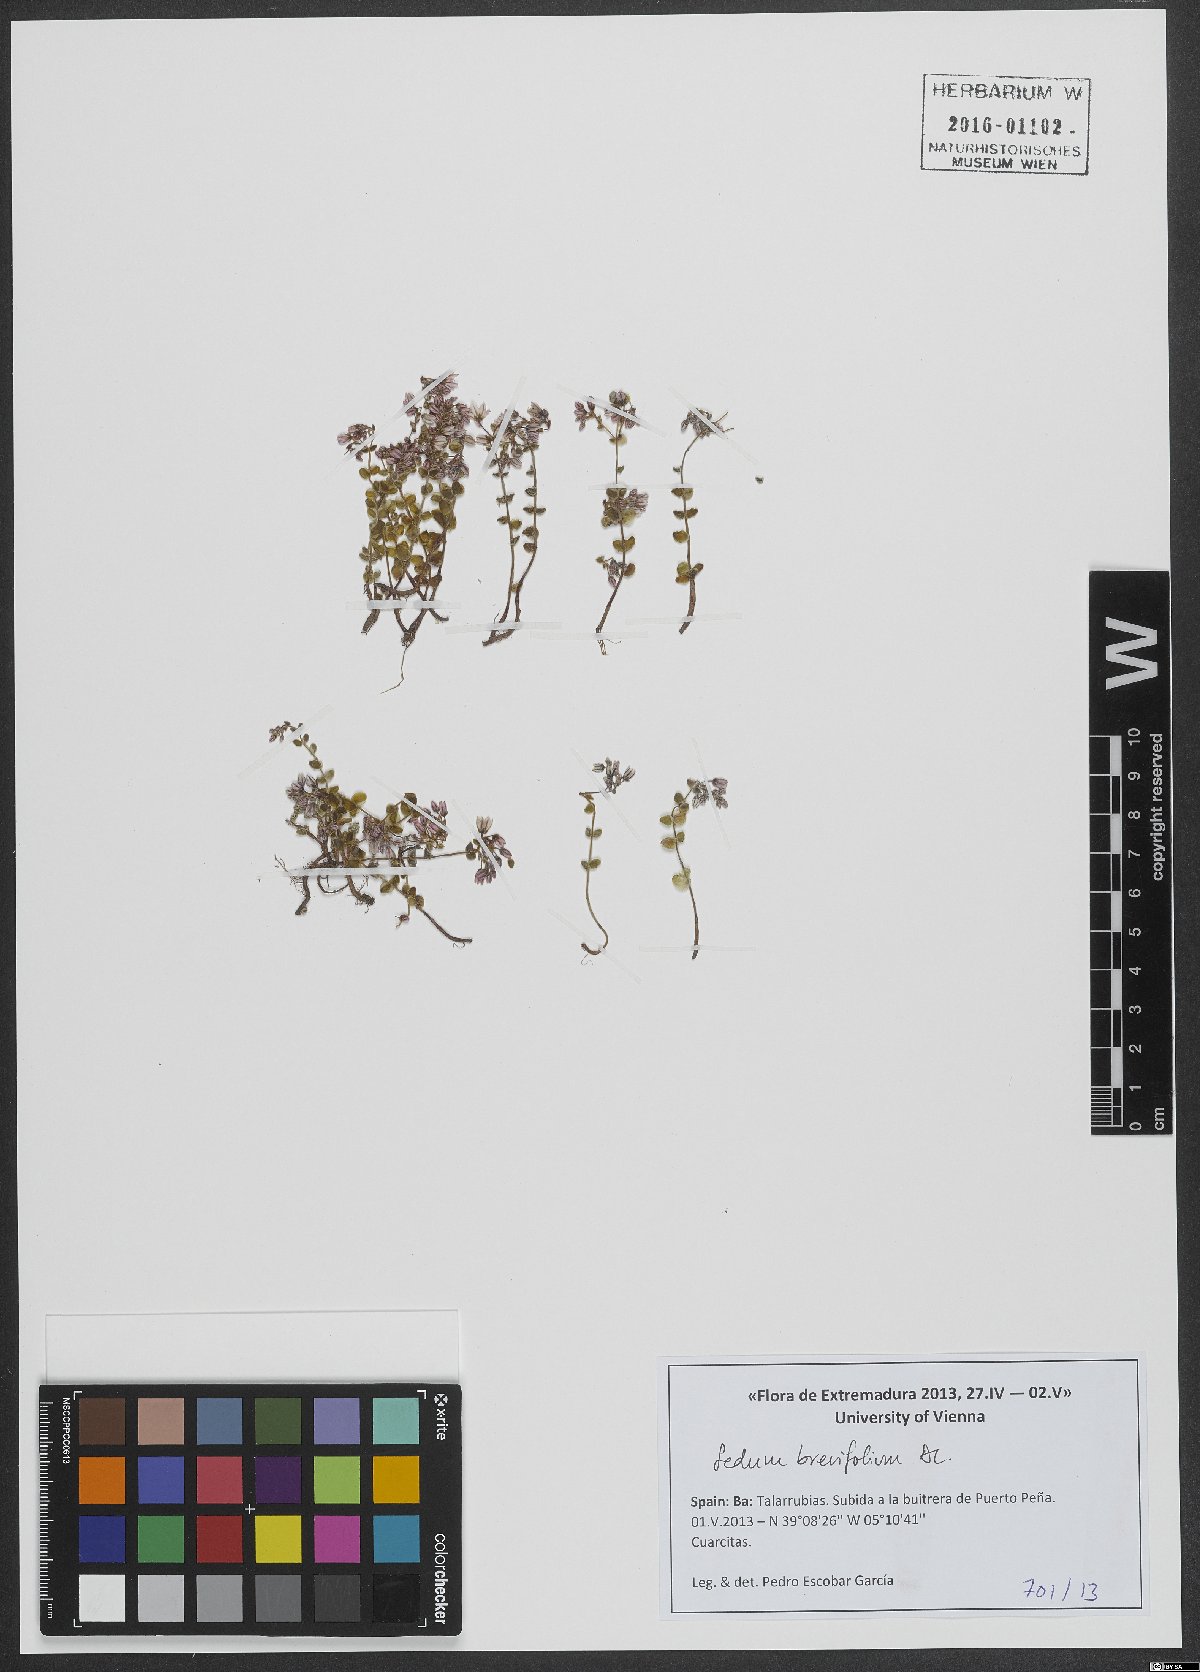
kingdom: Plantae
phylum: Tracheophyta
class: Magnoliopsida
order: Saxifragales
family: Crassulaceae
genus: Sedum
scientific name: Sedum brevifolium
